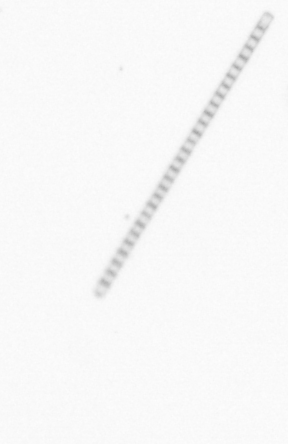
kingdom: Chromista
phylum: Ochrophyta
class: Bacillariophyceae
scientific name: Bacillariophyceae
